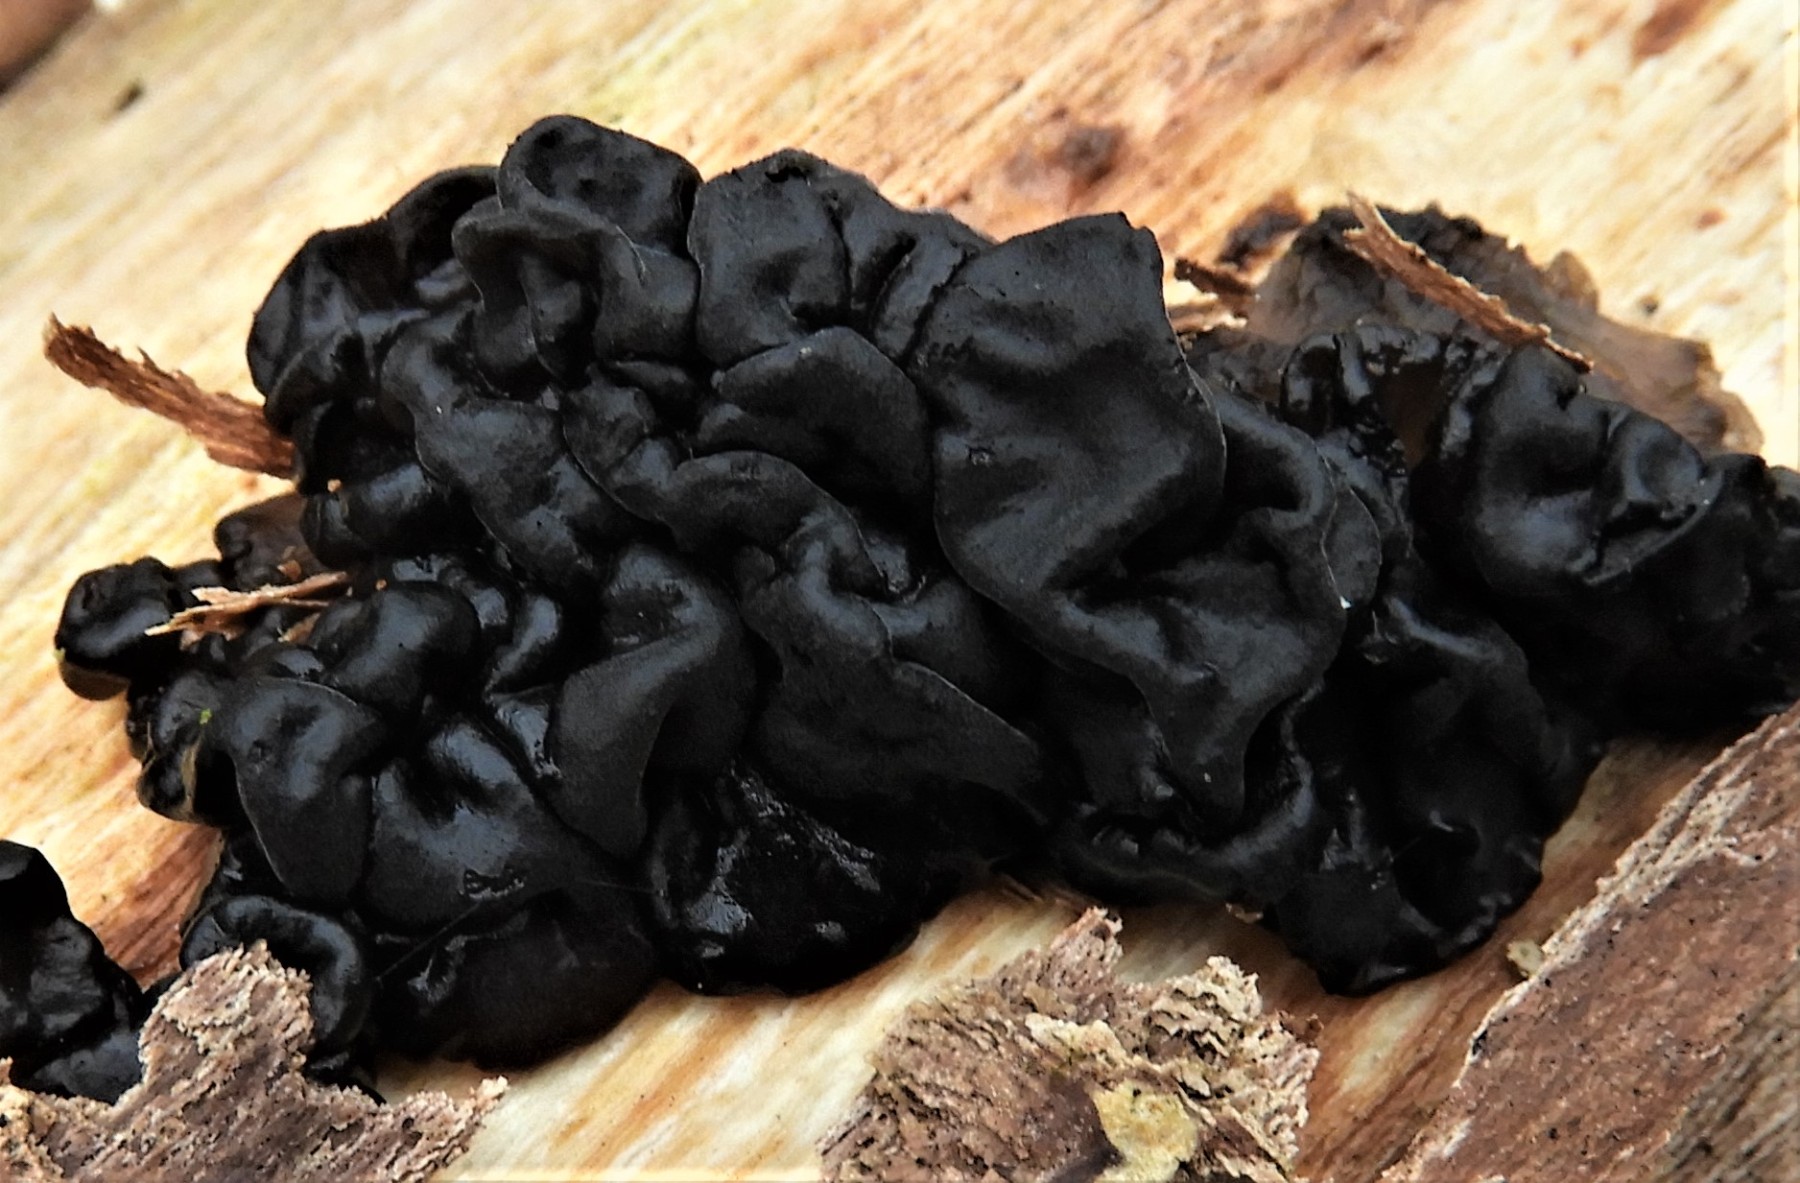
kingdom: Fungi
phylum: Basidiomycota
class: Agaricomycetes
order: Auriculariales
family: Auriculariaceae
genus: Exidia
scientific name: Exidia glandulosa
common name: ege-bævretop
